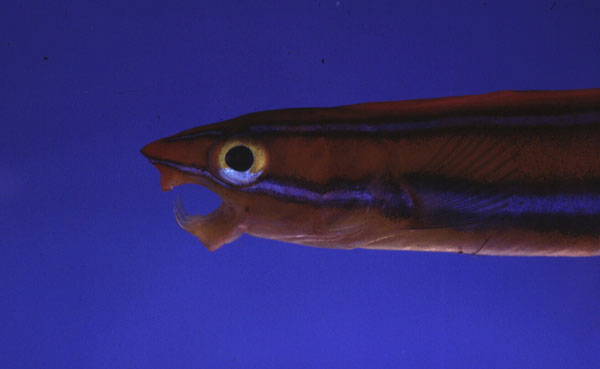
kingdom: Animalia
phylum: Chordata
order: Perciformes
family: Blenniidae
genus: Plagiotremus
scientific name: Plagiotremus rhinorhynchos
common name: Bluestriped fangblenny
